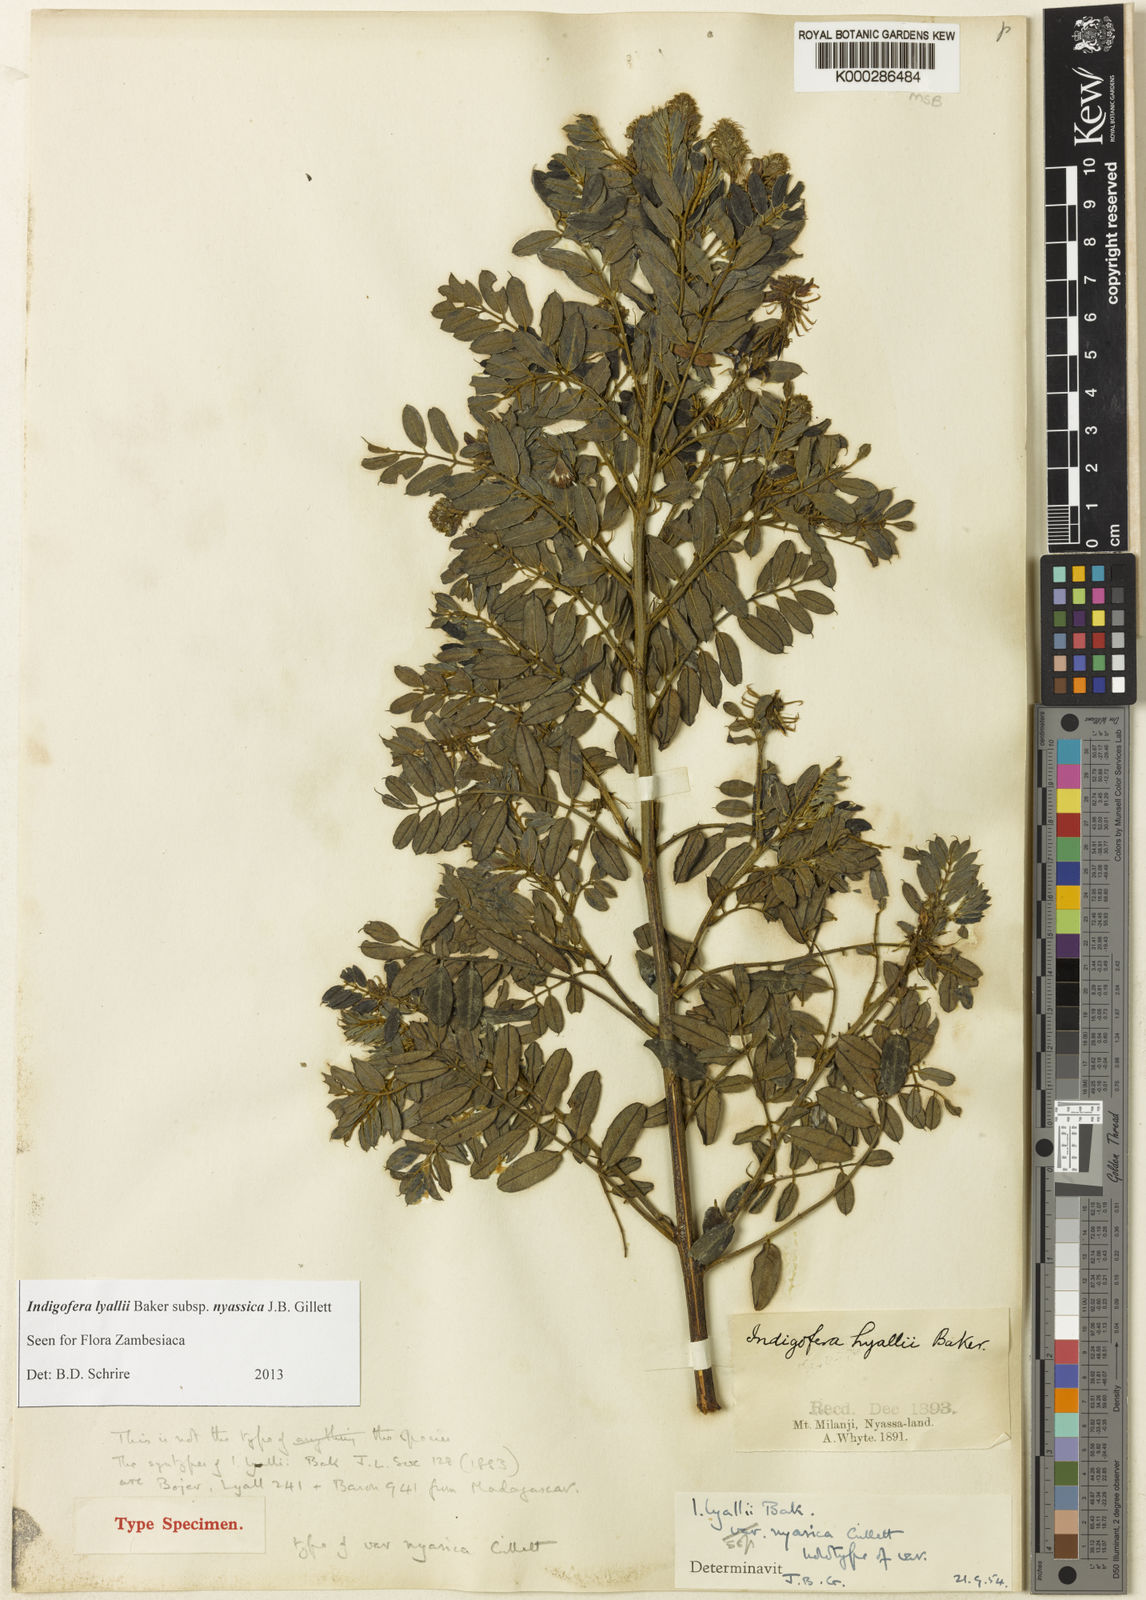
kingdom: Plantae
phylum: Tracheophyta
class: Magnoliopsida
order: Fabales
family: Fabaceae
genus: Vigna
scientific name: Vigna hosei
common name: Sarawak-bean
